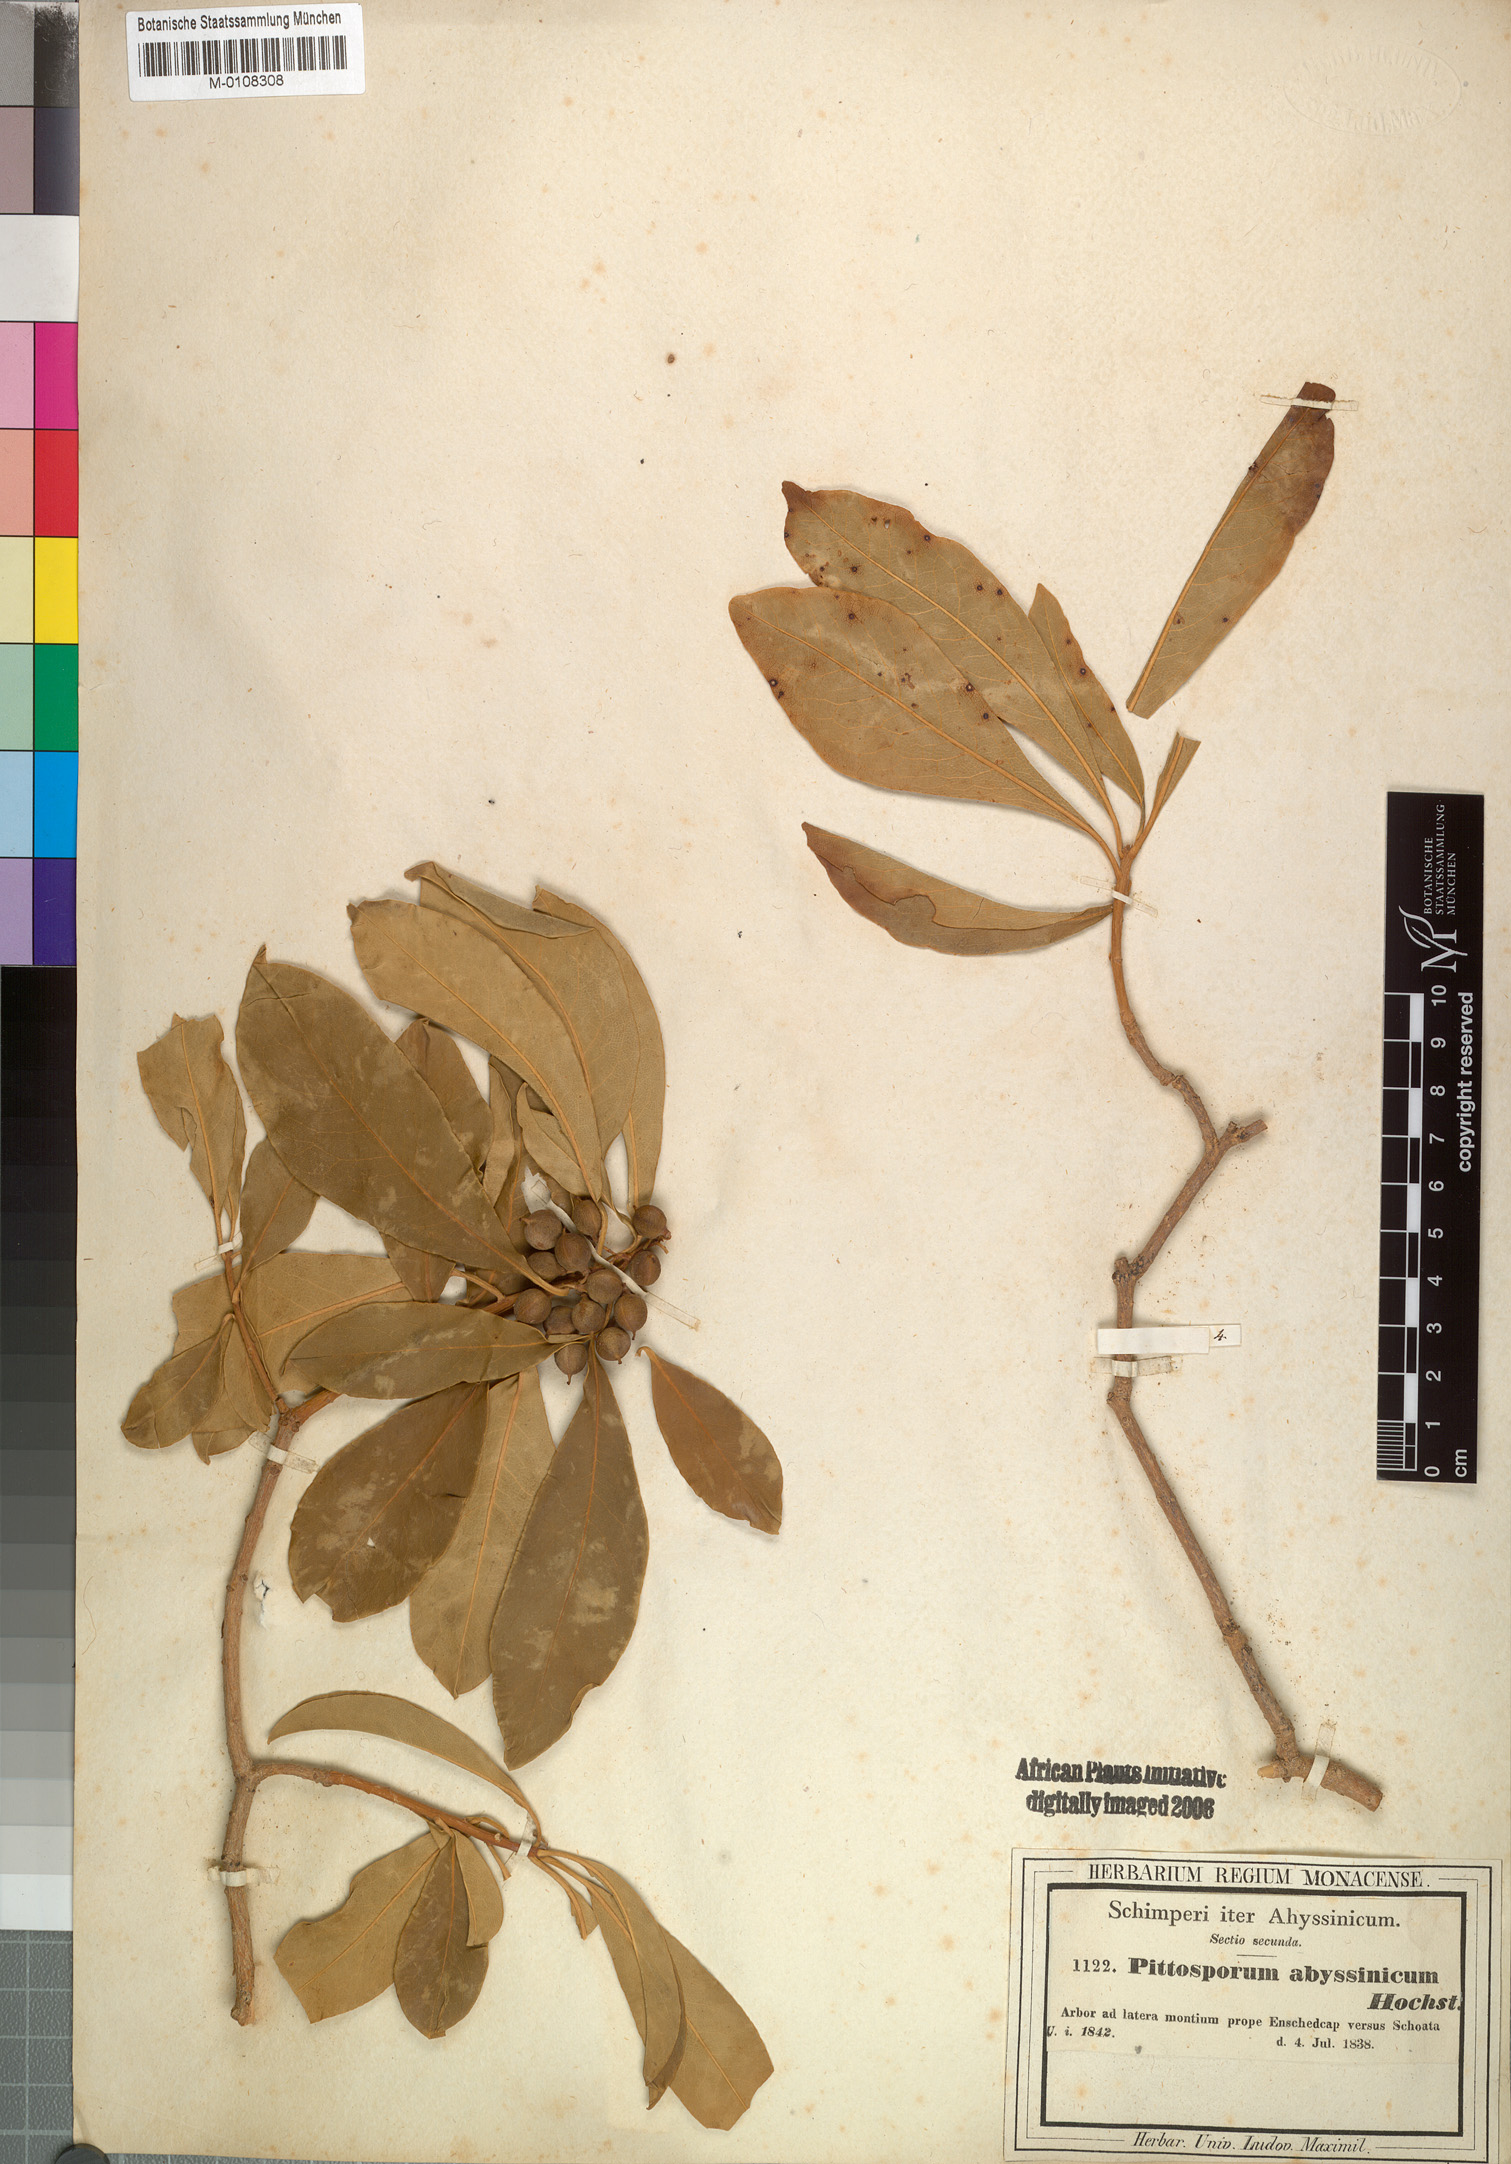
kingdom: Plantae
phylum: Tracheophyta
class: Magnoliopsida
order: Apiales
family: Pittosporaceae
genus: Pittosporum
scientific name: Pittosporum abyssinicum
